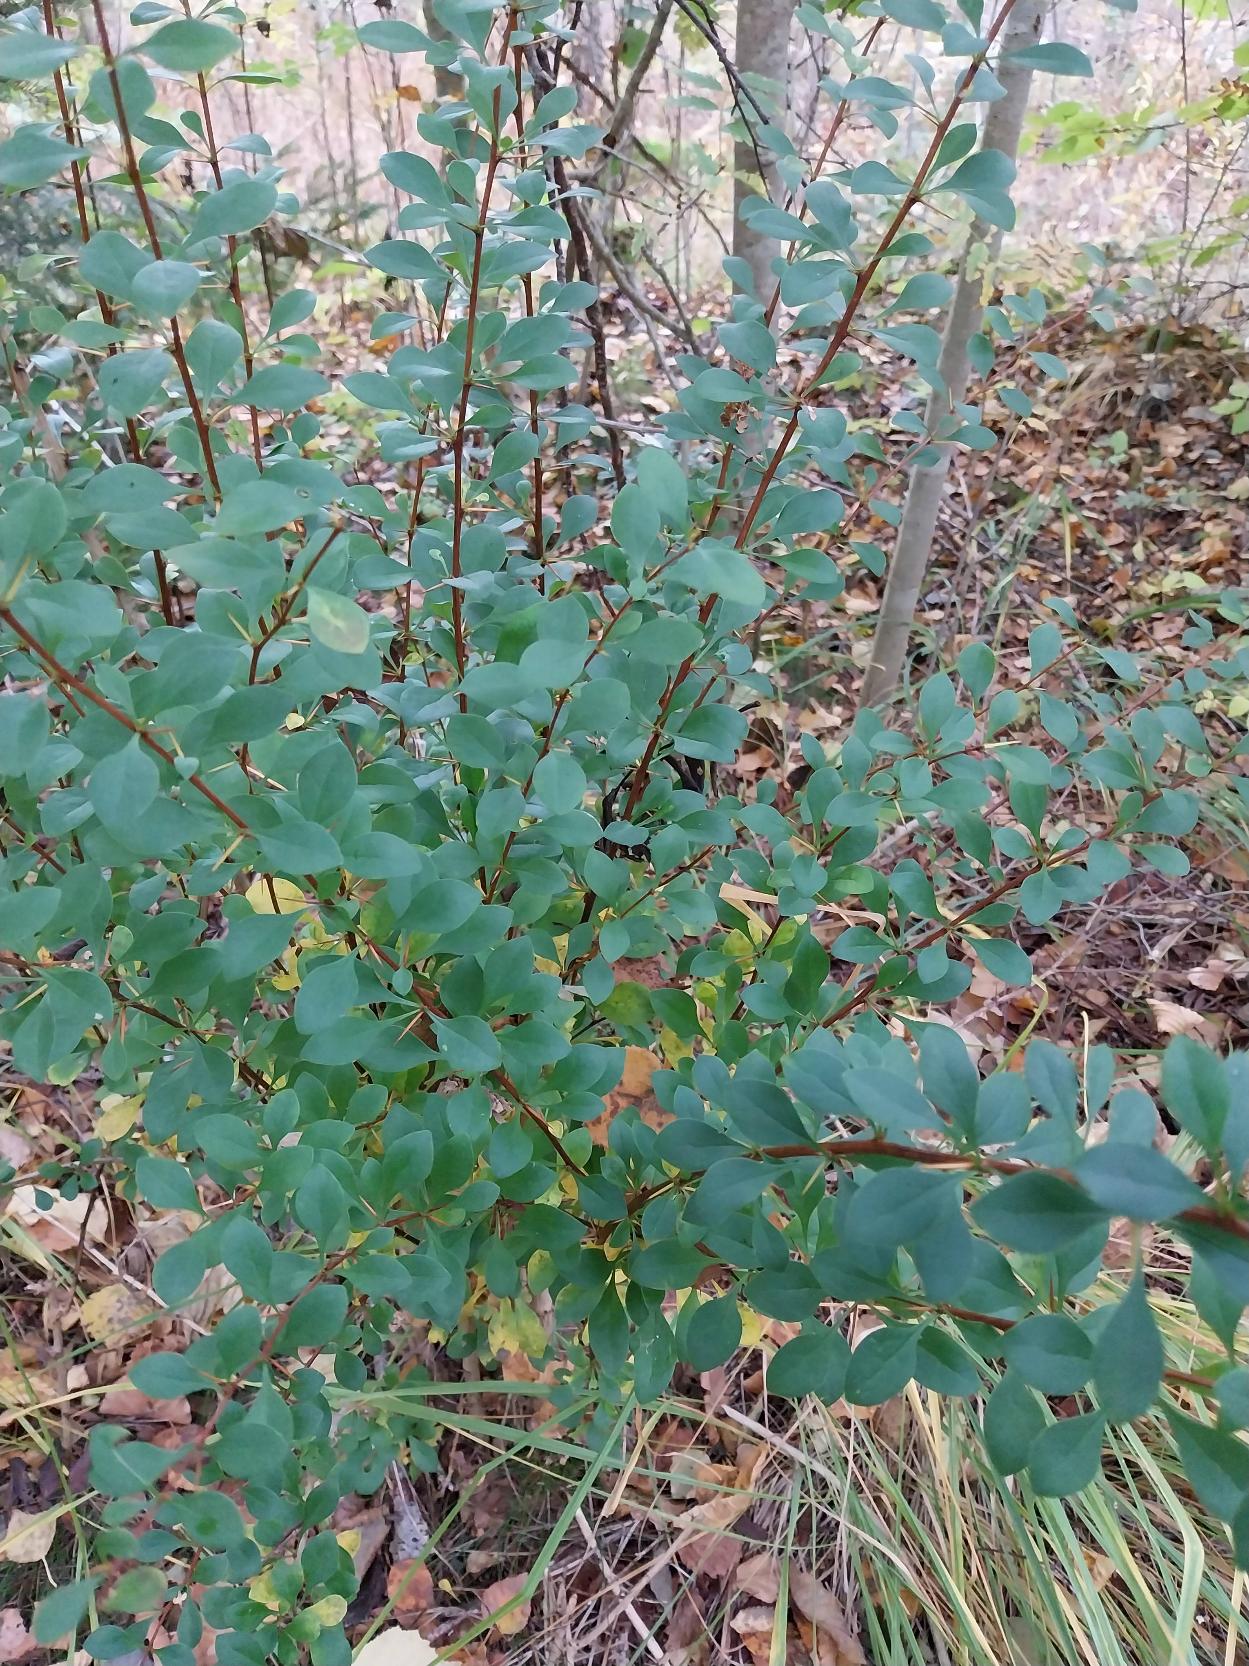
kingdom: Plantae
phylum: Tracheophyta
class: Magnoliopsida
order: Ranunculales
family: Berberidaceae
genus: Berberis
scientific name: Berberis thunbergii
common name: Hæk-berberis
